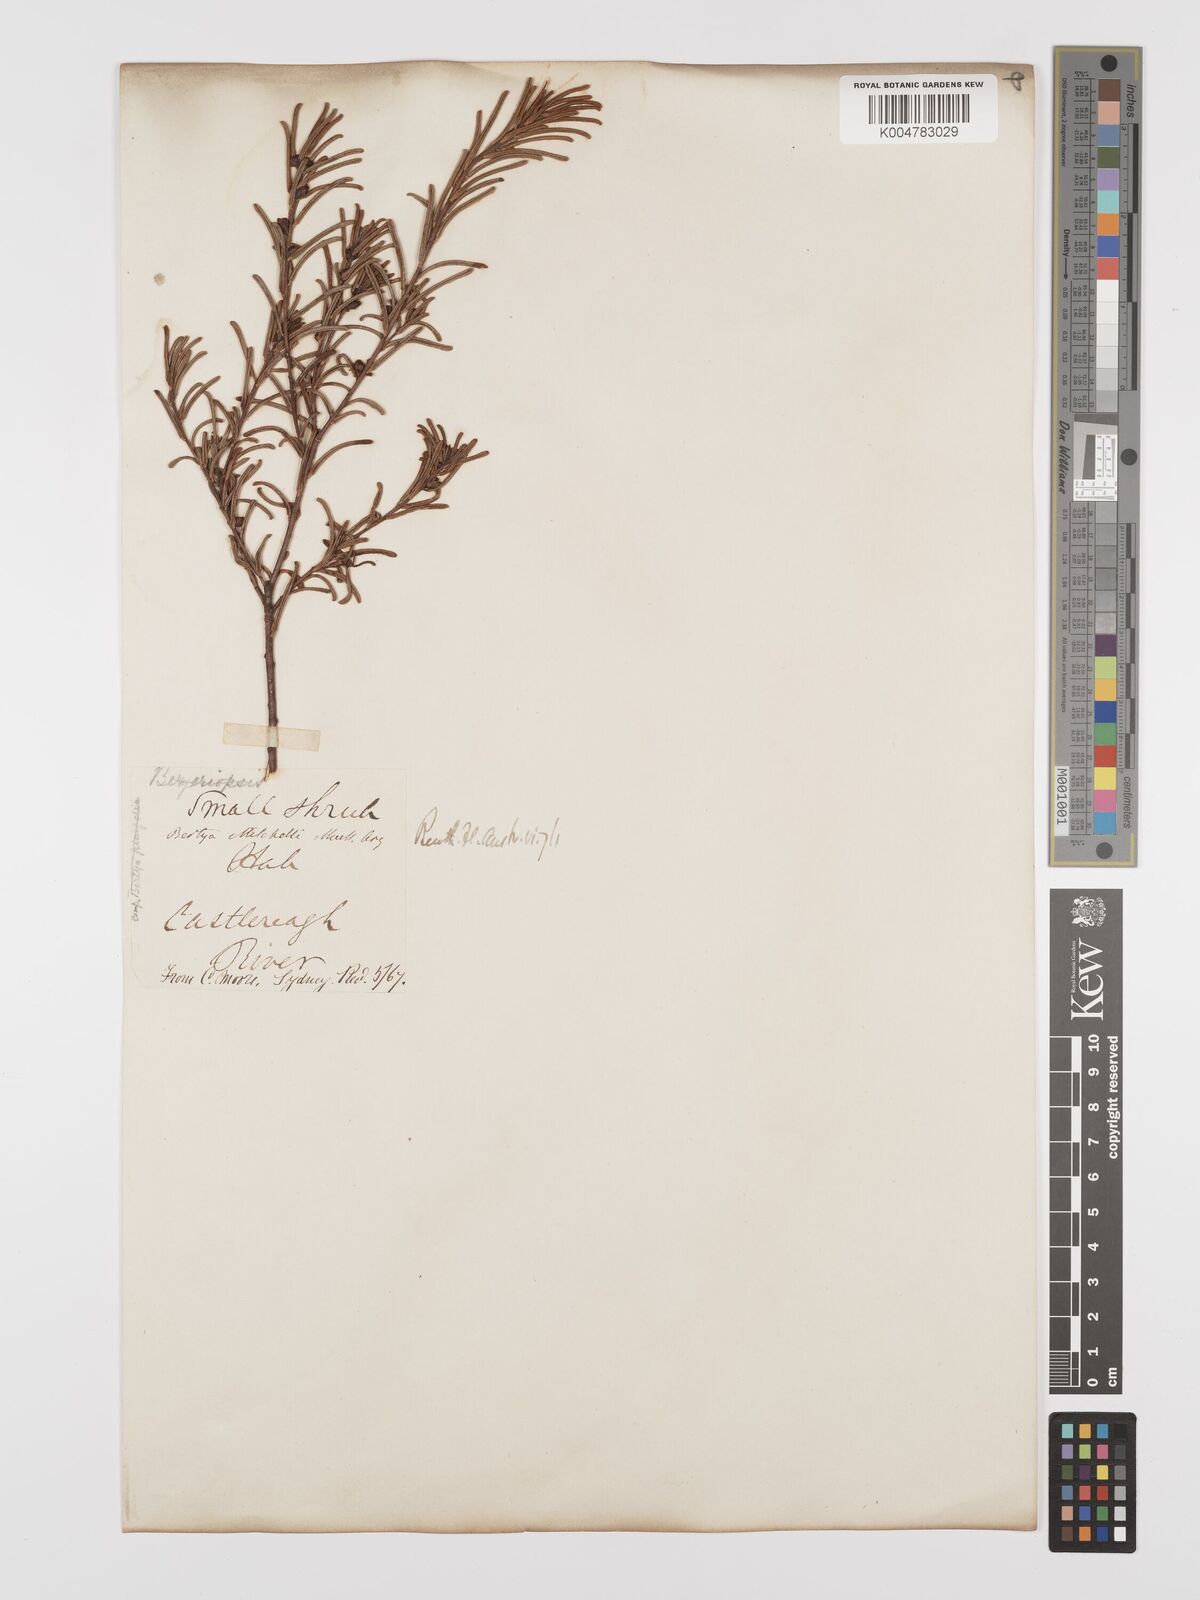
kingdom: Plantae
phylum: Tracheophyta
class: Magnoliopsida
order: Malpighiales
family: Euphorbiaceae
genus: Bertya
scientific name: Bertya oleifolia
